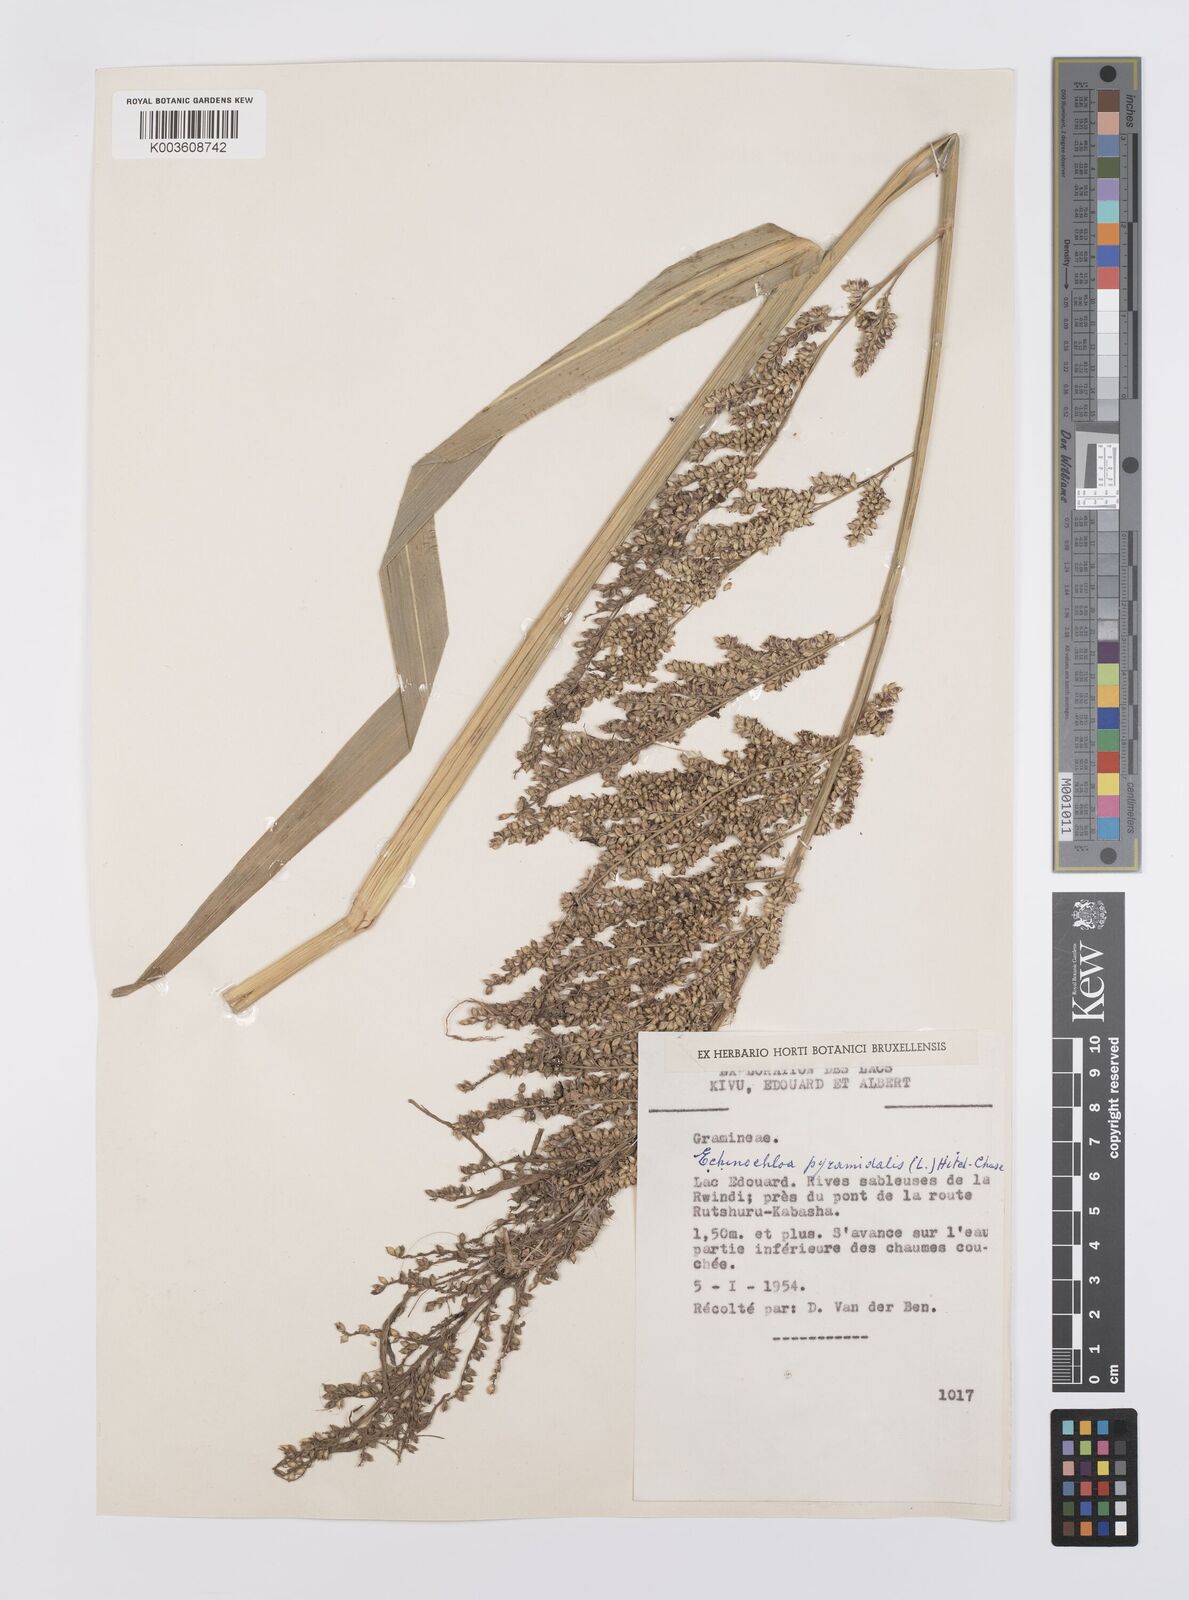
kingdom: Plantae
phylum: Tracheophyta
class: Liliopsida
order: Poales
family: Poaceae
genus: Echinochloa
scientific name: Echinochloa pyramidalis
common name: Antelope grass
